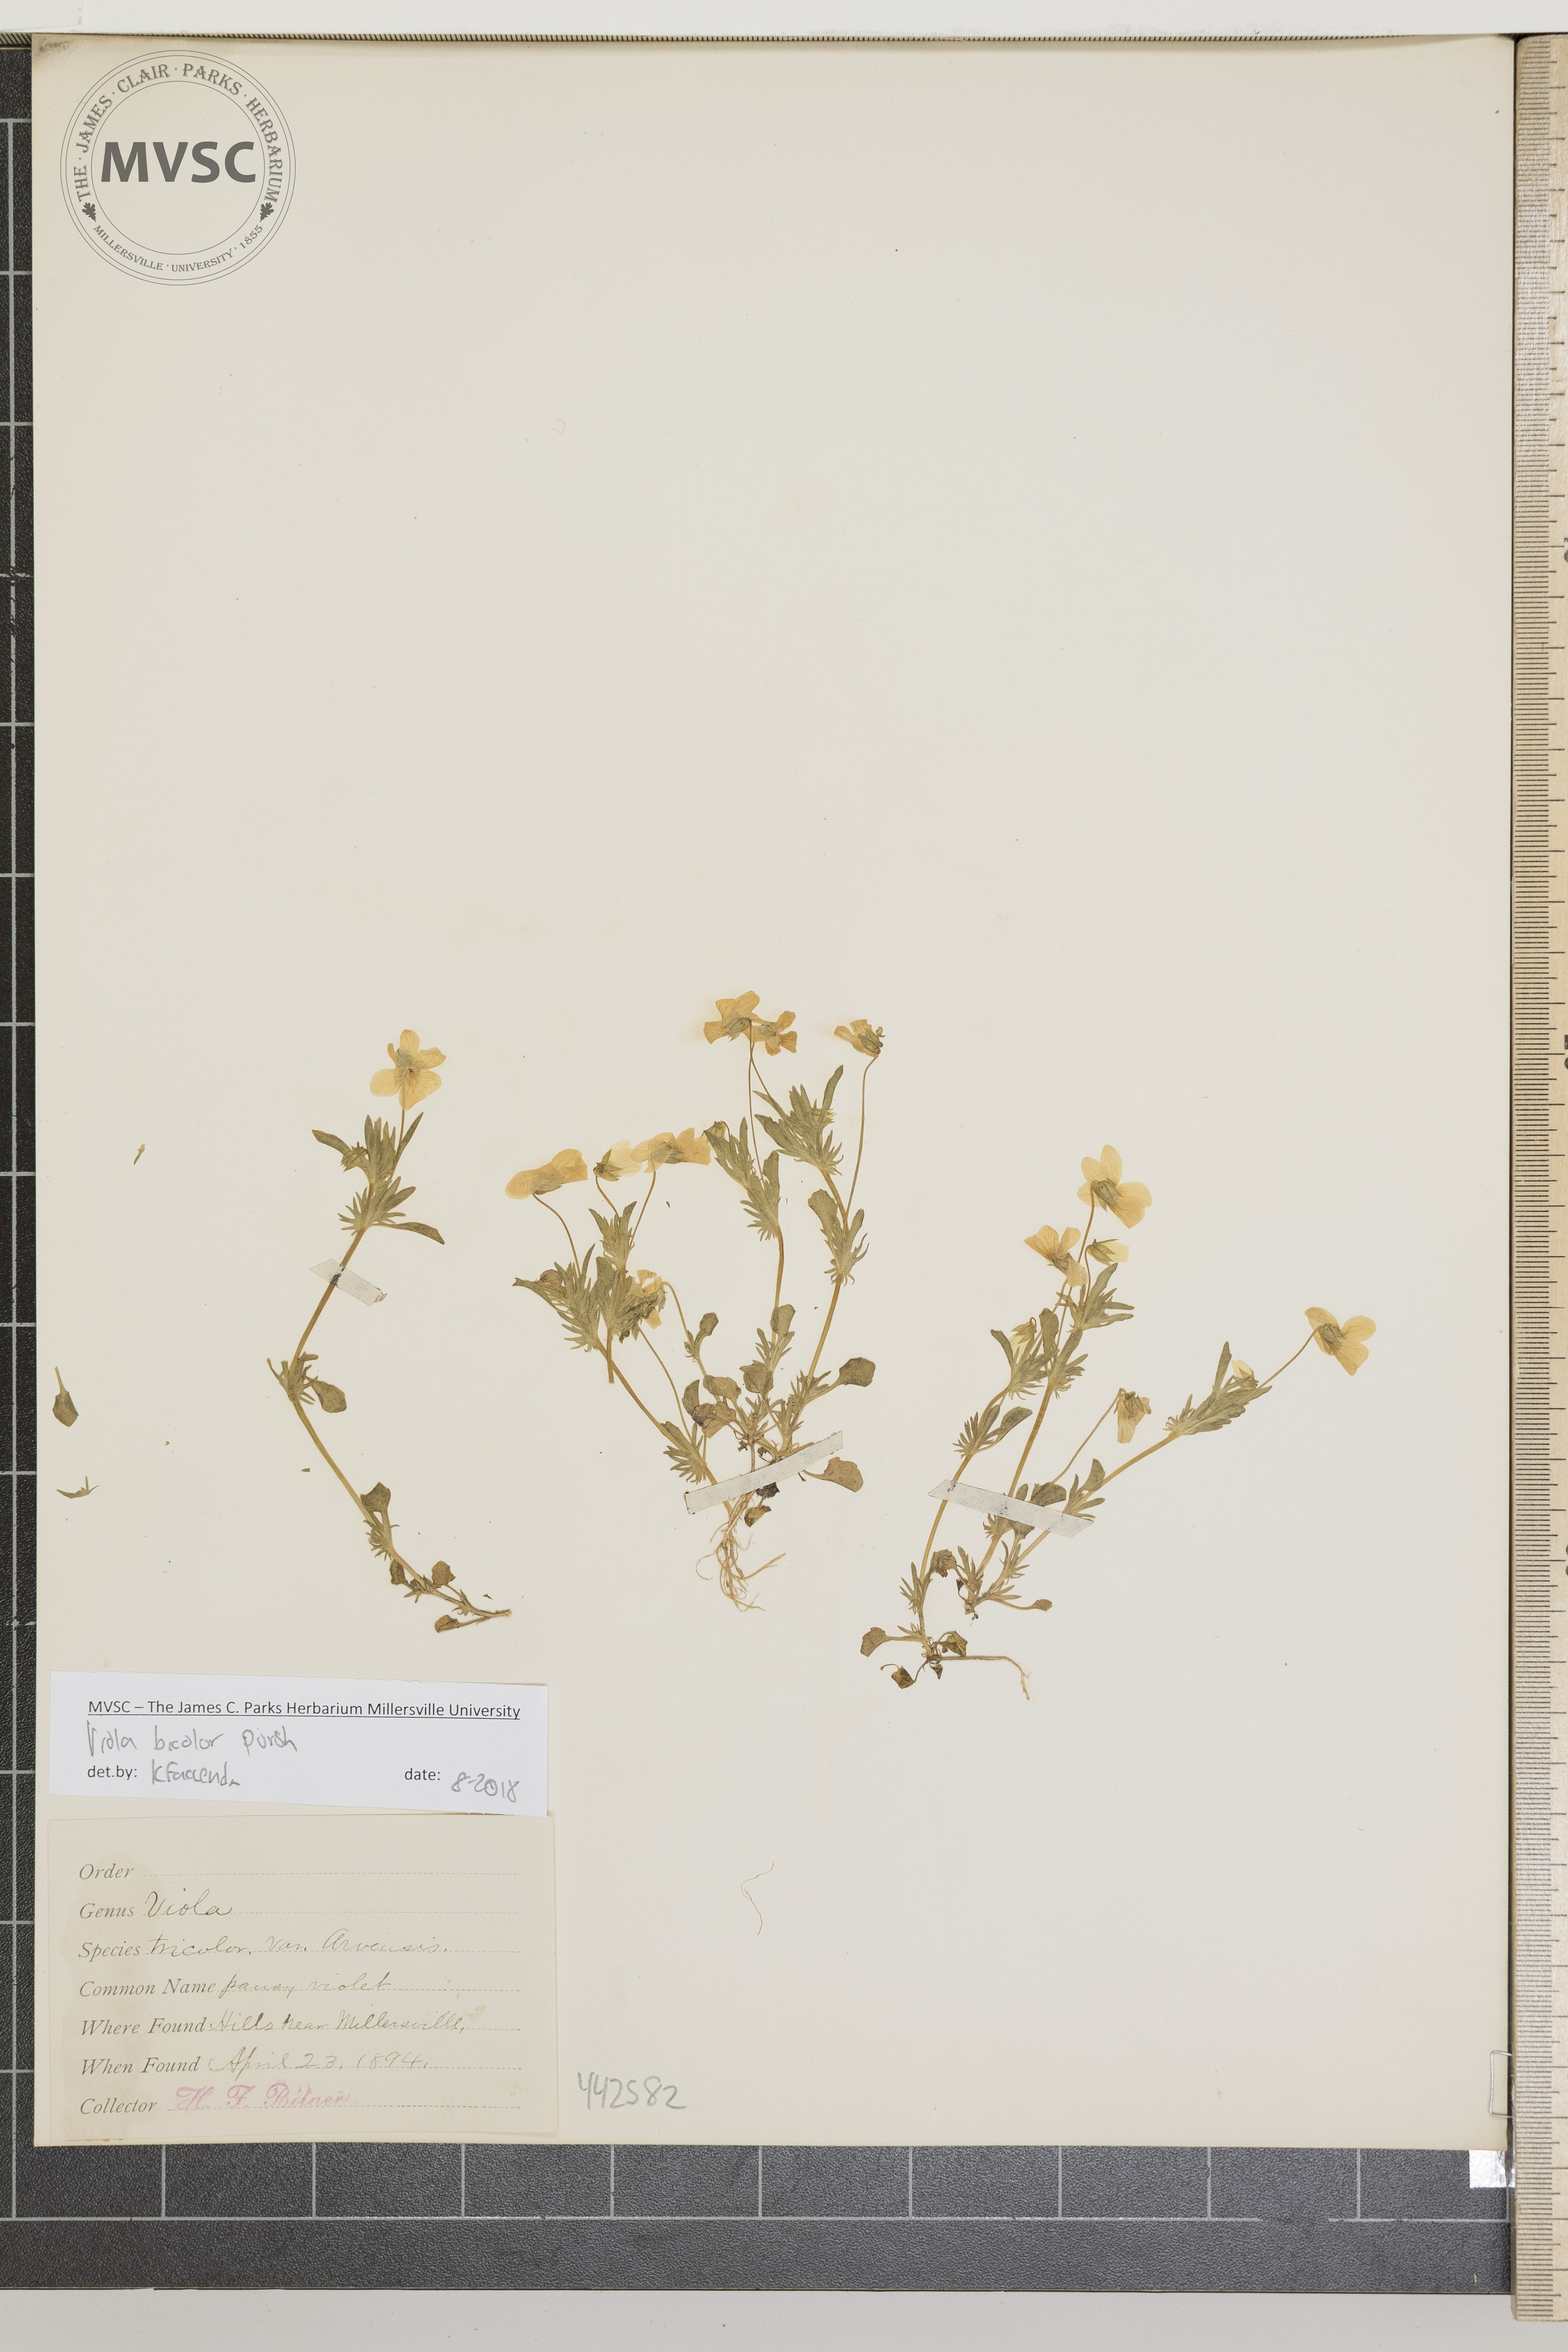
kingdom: Plantae
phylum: Tracheophyta
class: Magnoliopsida
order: Malpighiales
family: Violaceae
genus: Viola
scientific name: Viola rafinesquei
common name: Pansy violet
